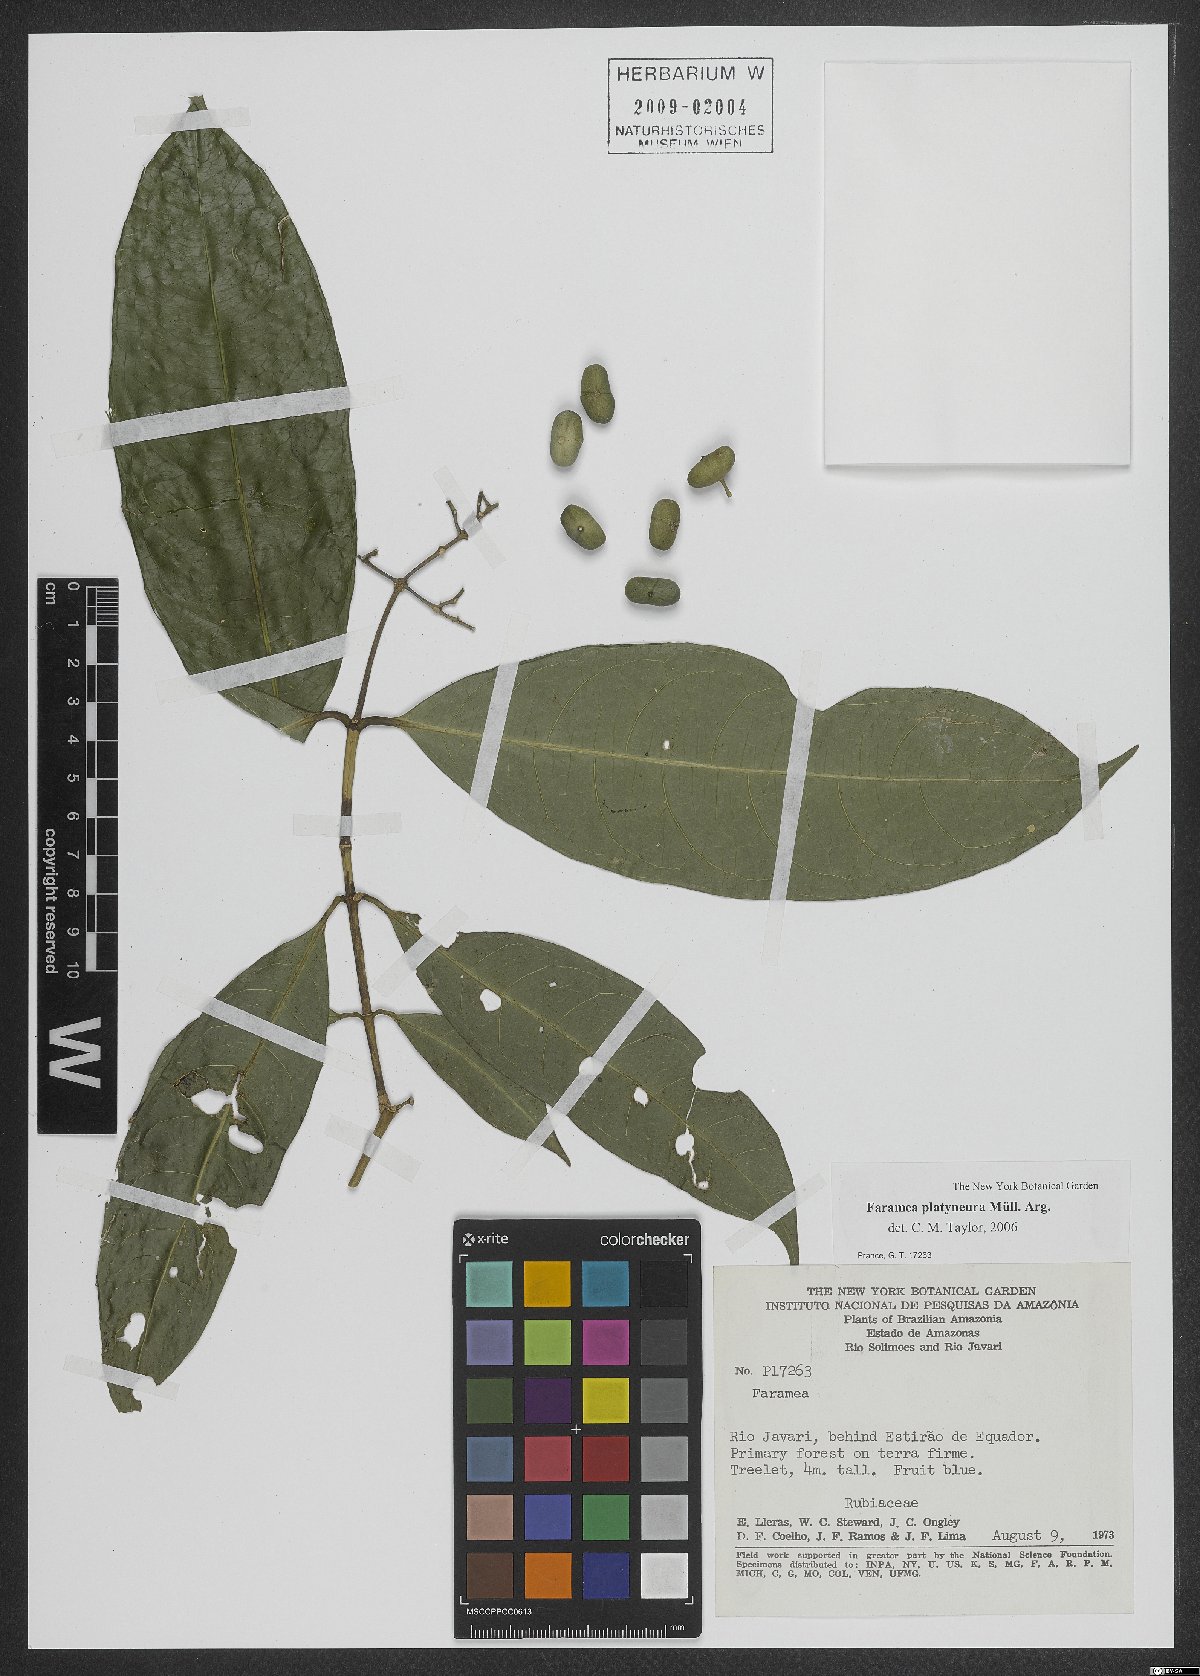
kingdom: Plantae
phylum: Tracheophyta
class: Magnoliopsida
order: Gentianales
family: Rubiaceae
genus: Faramea
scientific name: Faramea platyneura
